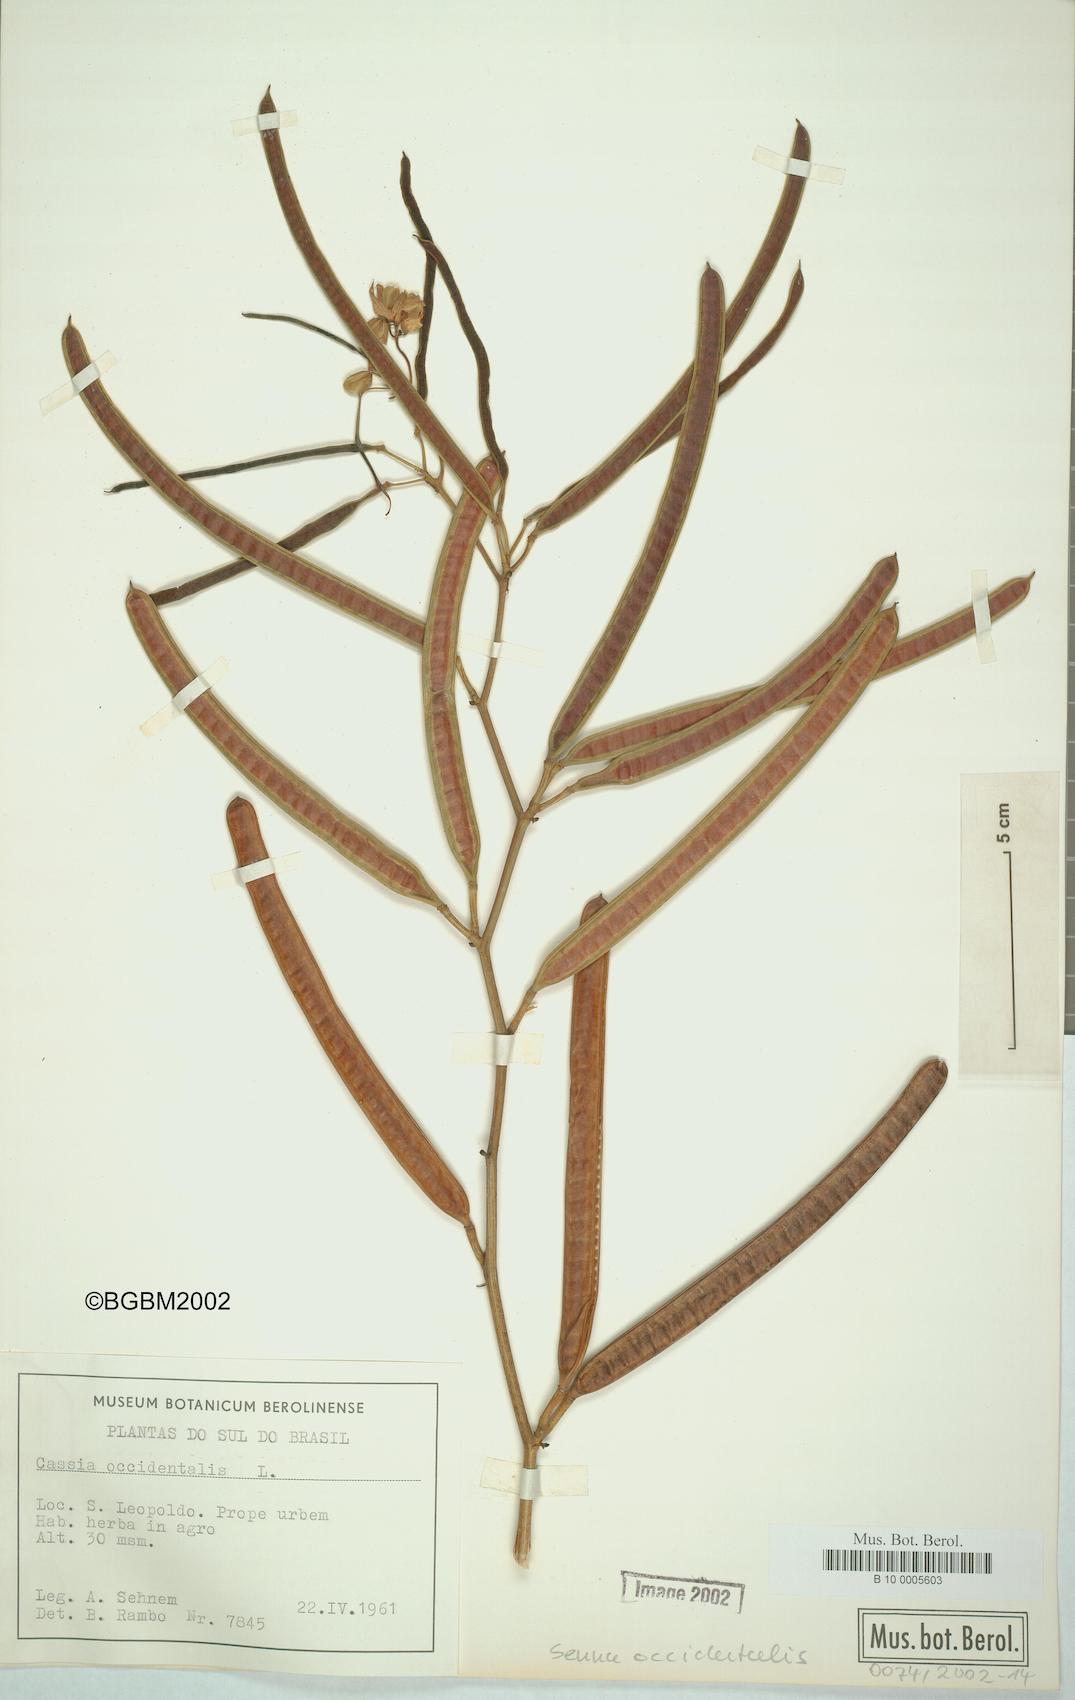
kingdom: Plantae
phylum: Tracheophyta
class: Magnoliopsida
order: Fabales
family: Fabaceae
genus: Senna
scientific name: Senna occidentalis
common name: Septicweed
